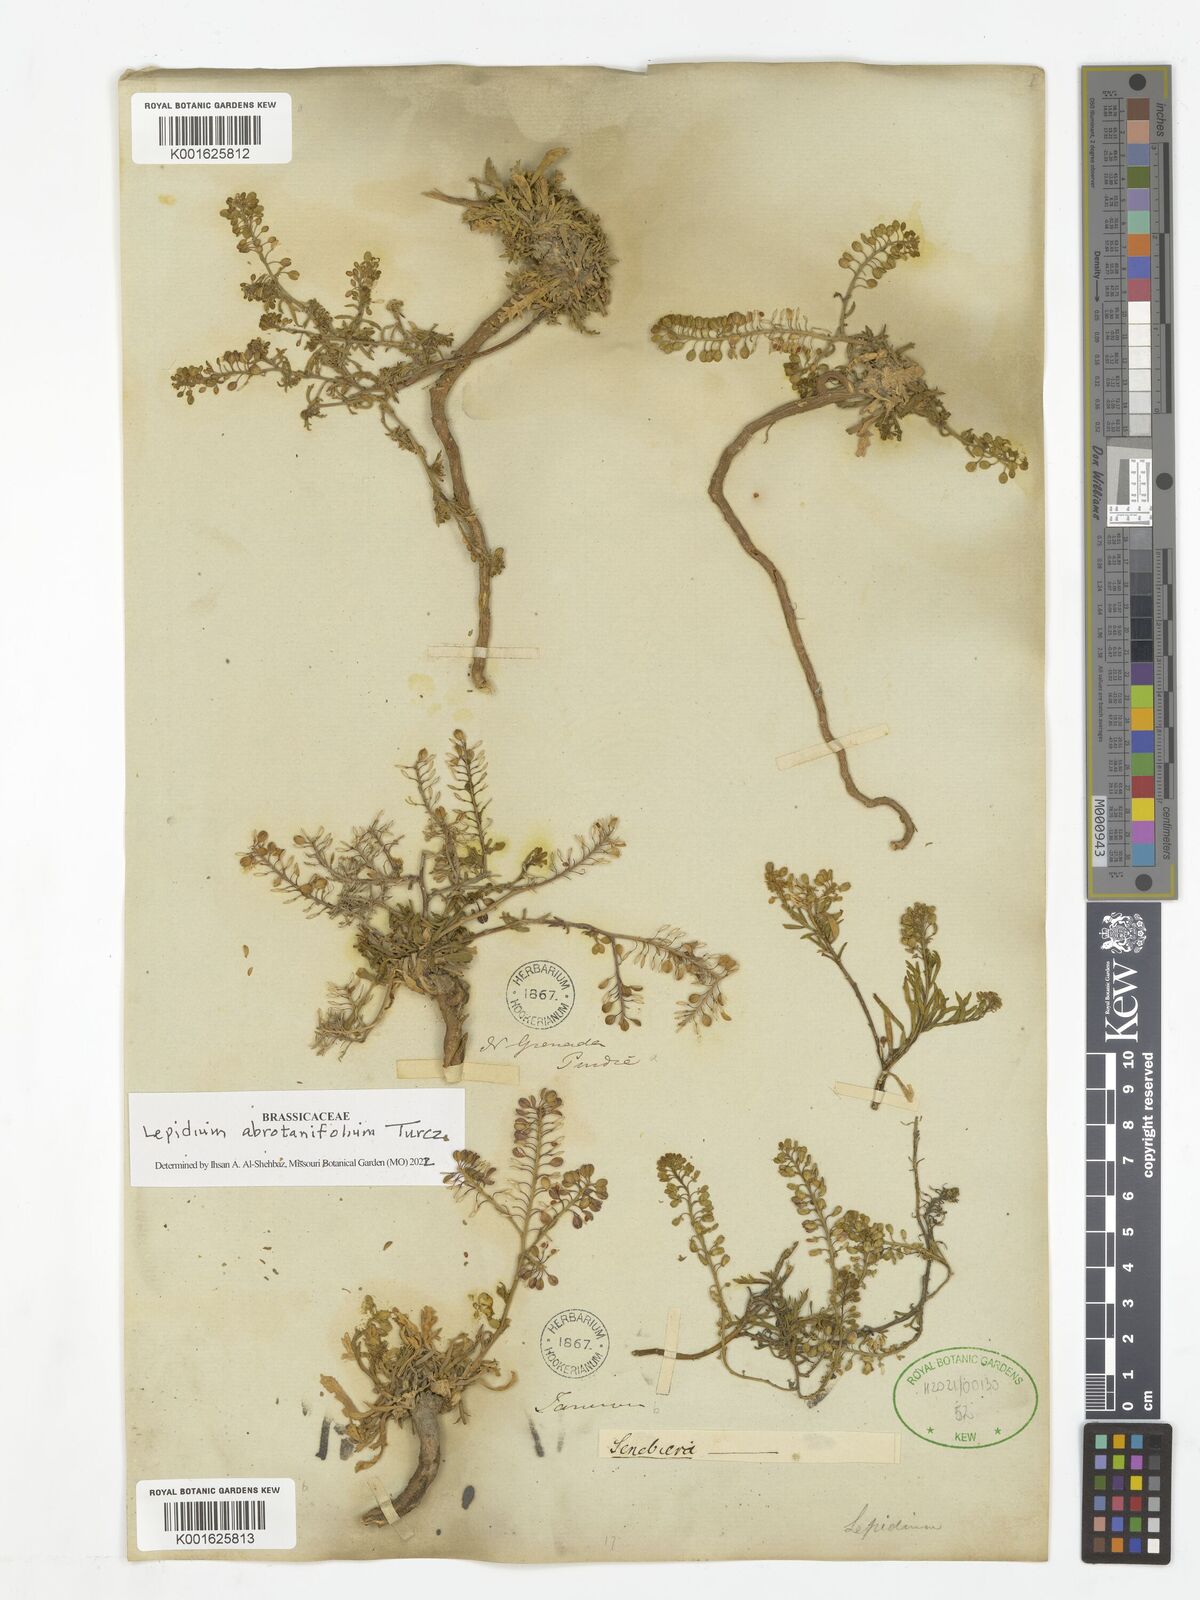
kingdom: Plantae
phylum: Tracheophyta
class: Magnoliopsida
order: Brassicales
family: Brassicaceae
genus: Lepidium
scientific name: Lepidium abrotanifolium
